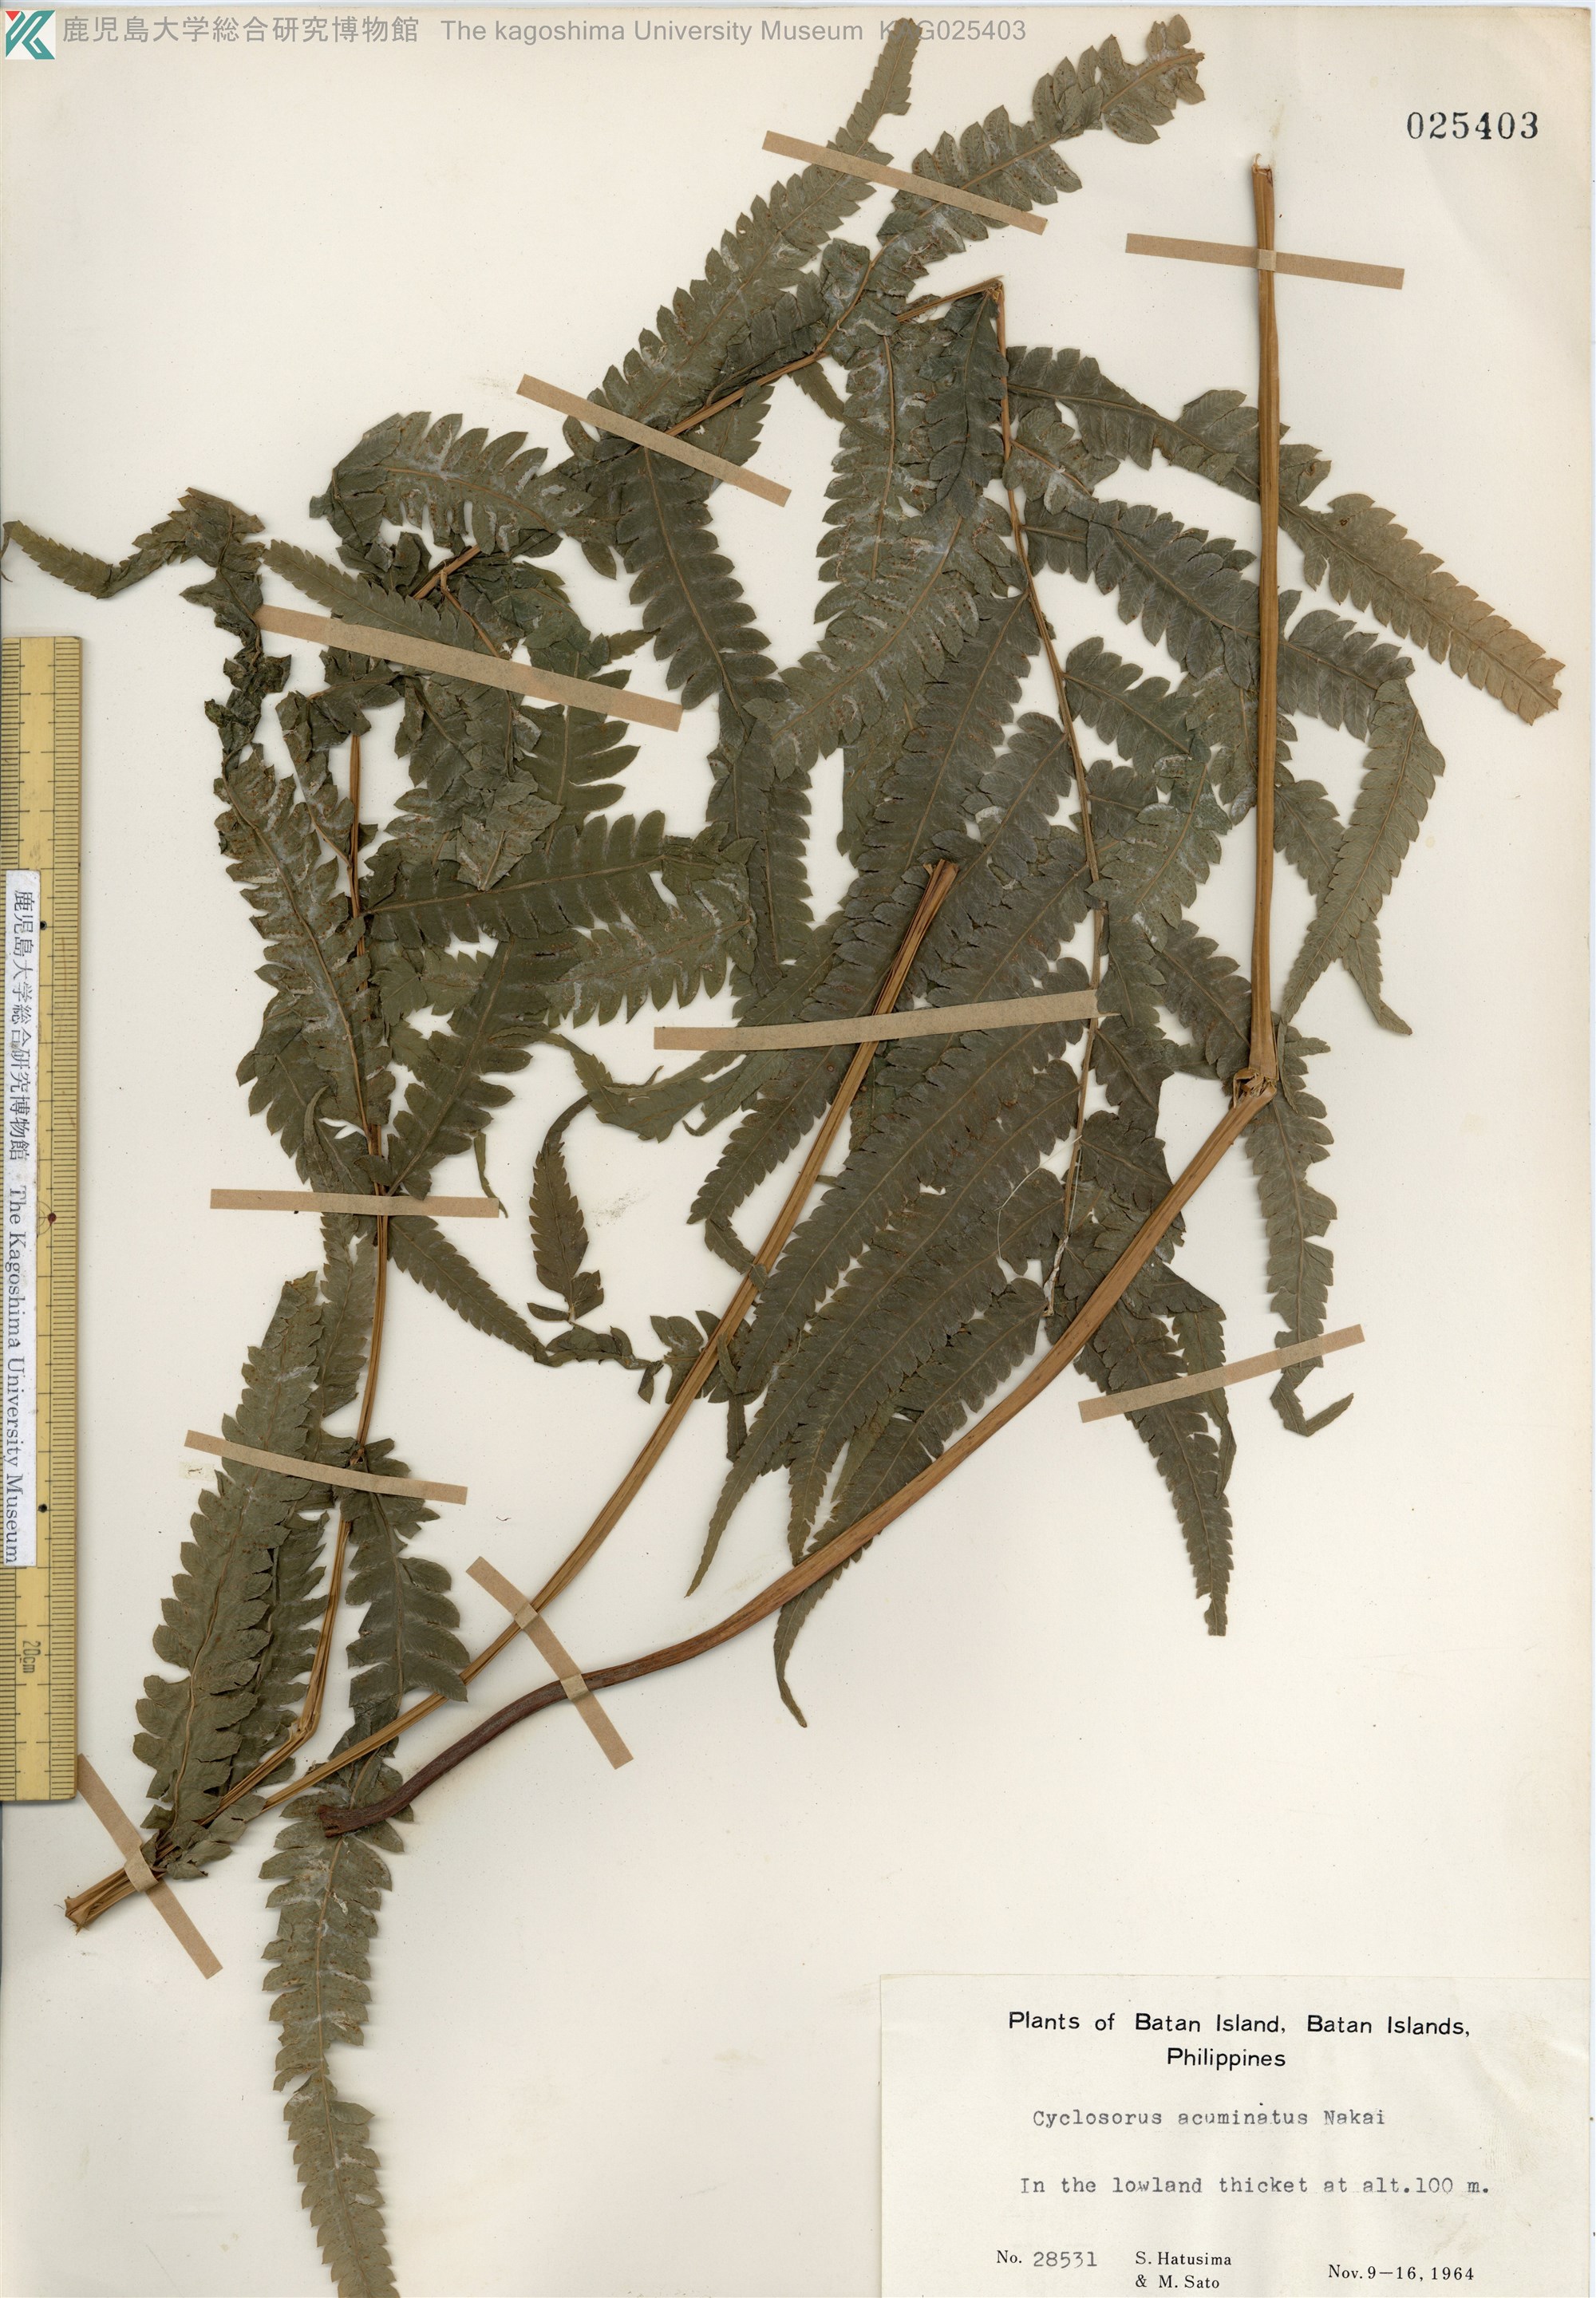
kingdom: Plantae
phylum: Tracheophyta
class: Polypodiopsida
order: Polypodiales
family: Thelypteridaceae
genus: Christella
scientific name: Christella acuminata
